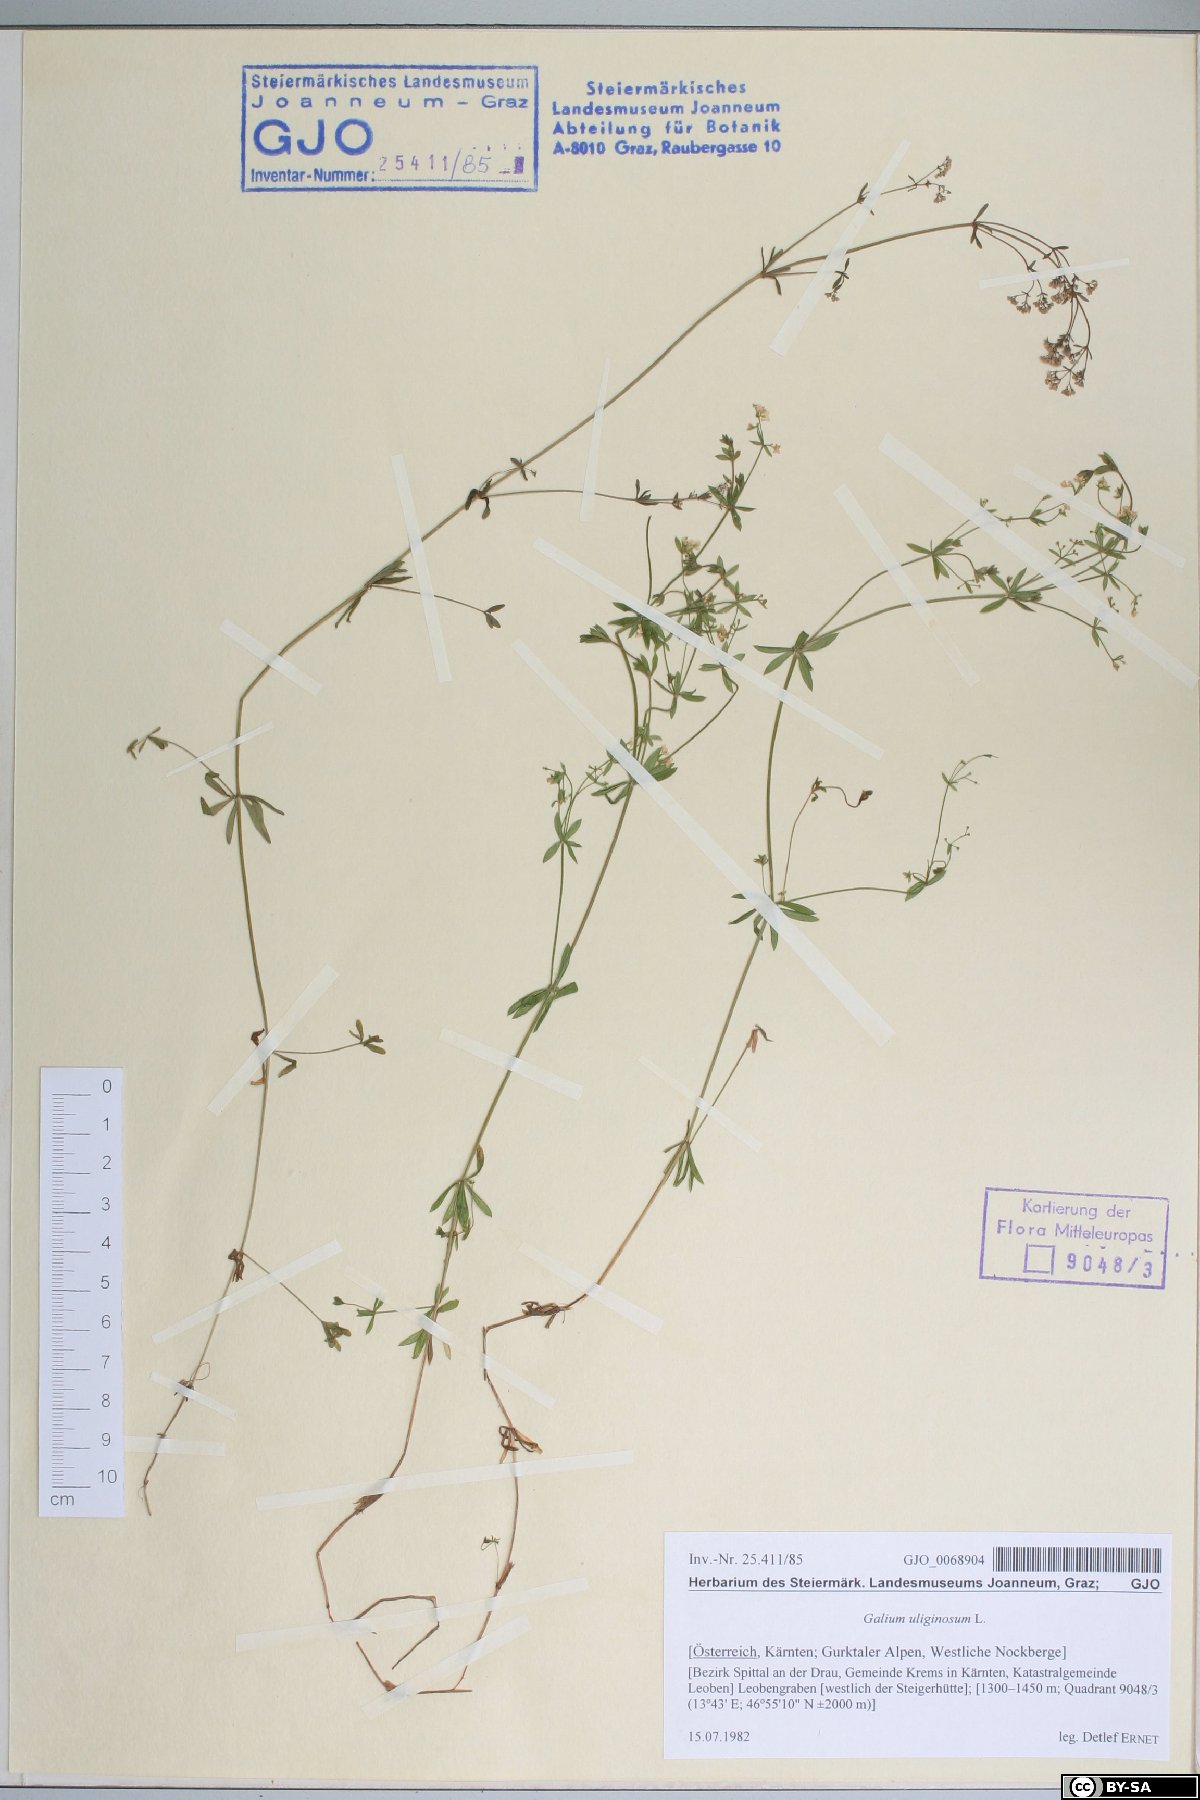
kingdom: Plantae
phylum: Tracheophyta
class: Magnoliopsida
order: Gentianales
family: Rubiaceae
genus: Galium
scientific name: Galium uliginosum
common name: Fen bedstraw
